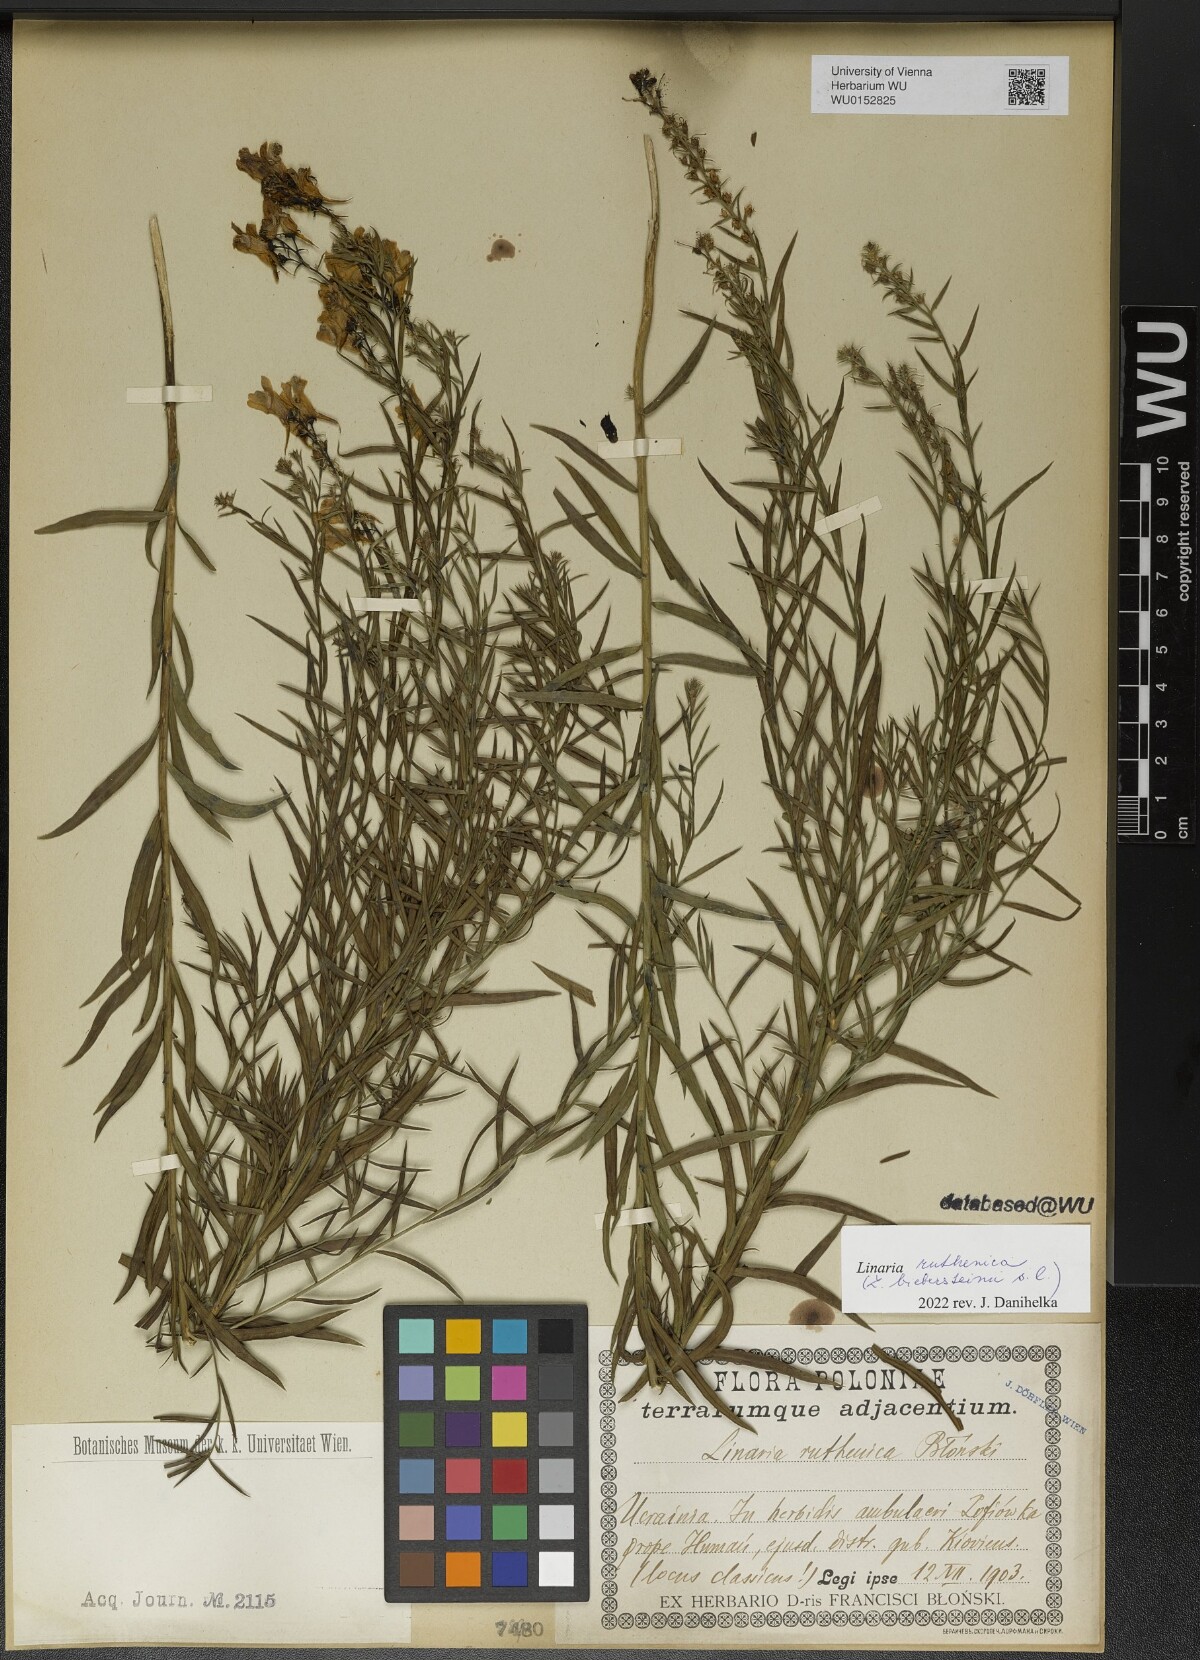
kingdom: Plantae
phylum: Tracheophyta
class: Magnoliopsida
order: Lamiales
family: Plantaginaceae
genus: Linaria
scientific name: Linaria biebersteinii
